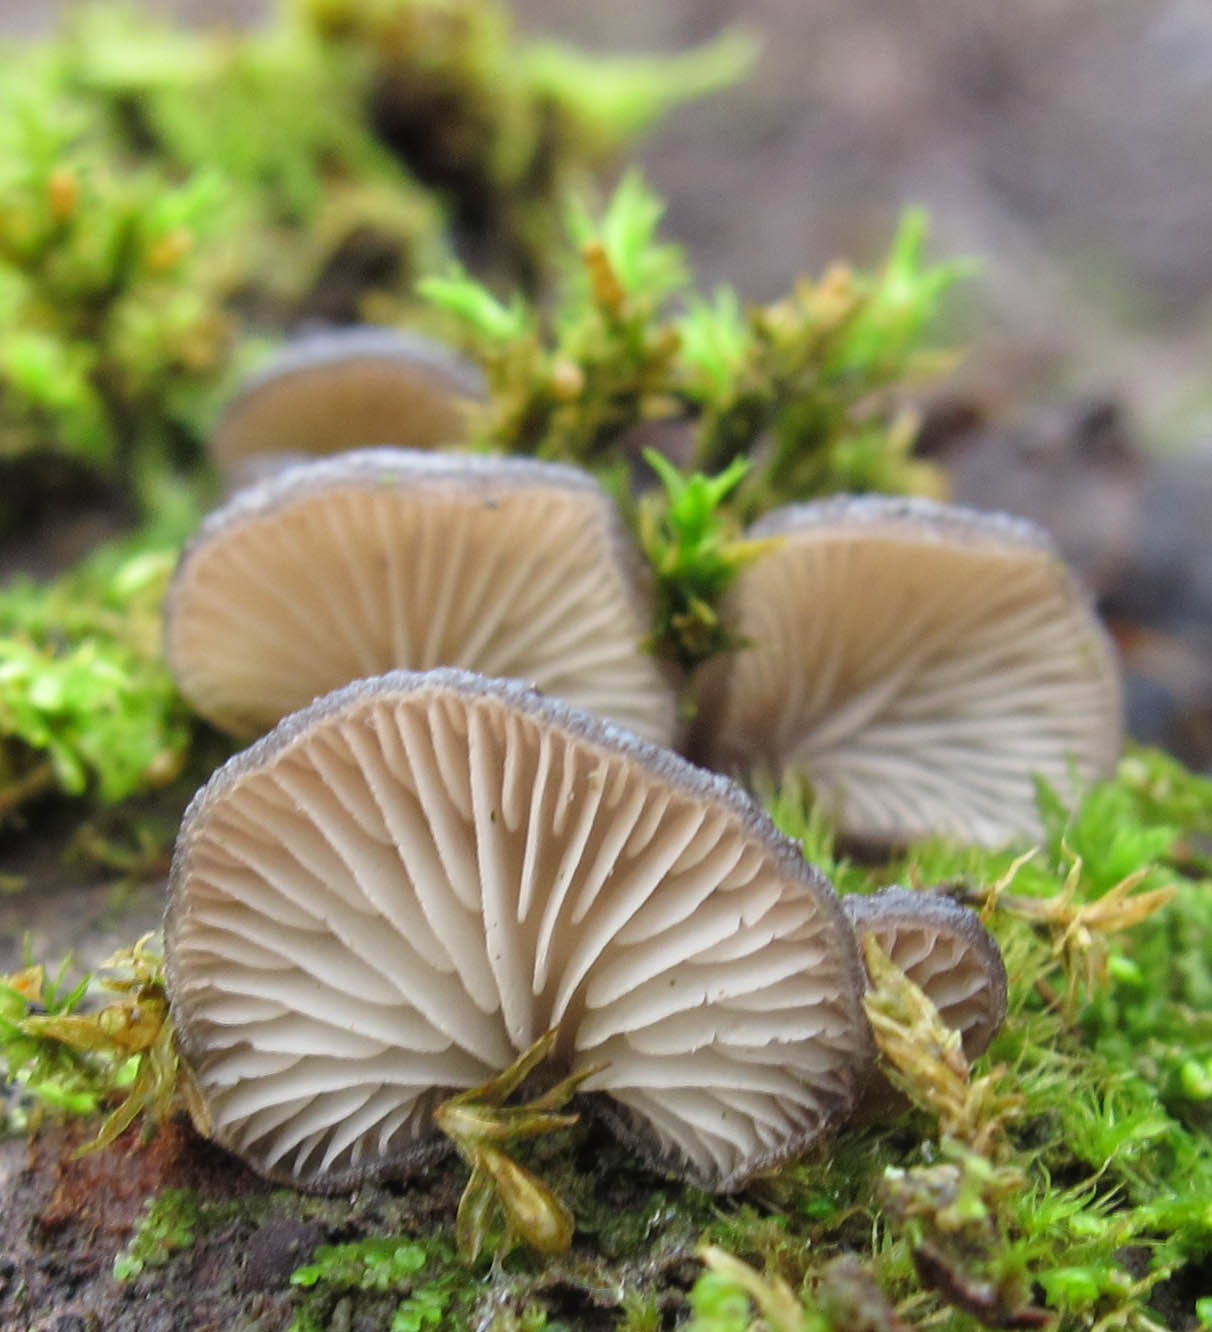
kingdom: Fungi
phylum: Basidiomycota
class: Agaricomycetes
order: Agaricales
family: Pleurotaceae
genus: Hohenbuehelia
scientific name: Hohenbuehelia fluxilis
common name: pile-filthat
